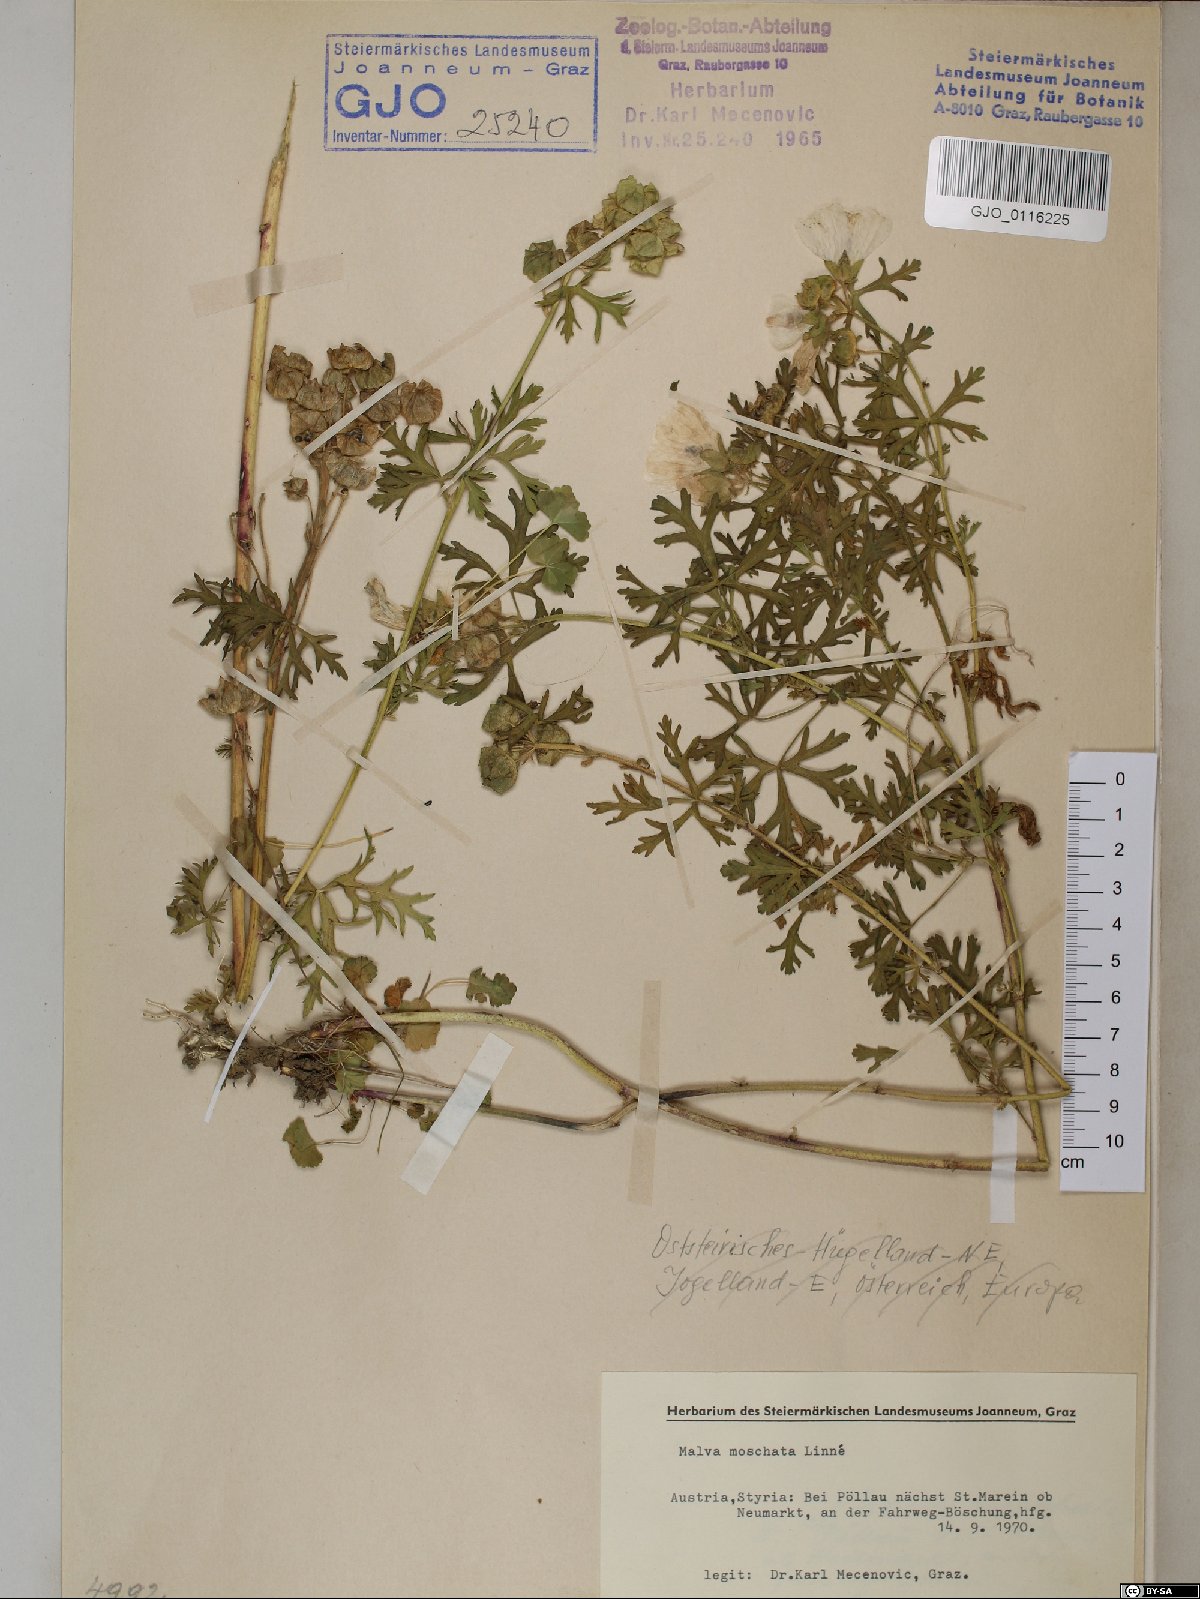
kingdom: Plantae
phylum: Tracheophyta
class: Magnoliopsida
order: Malvales
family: Malvaceae
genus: Malva
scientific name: Malva moschata
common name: Musk mallow
